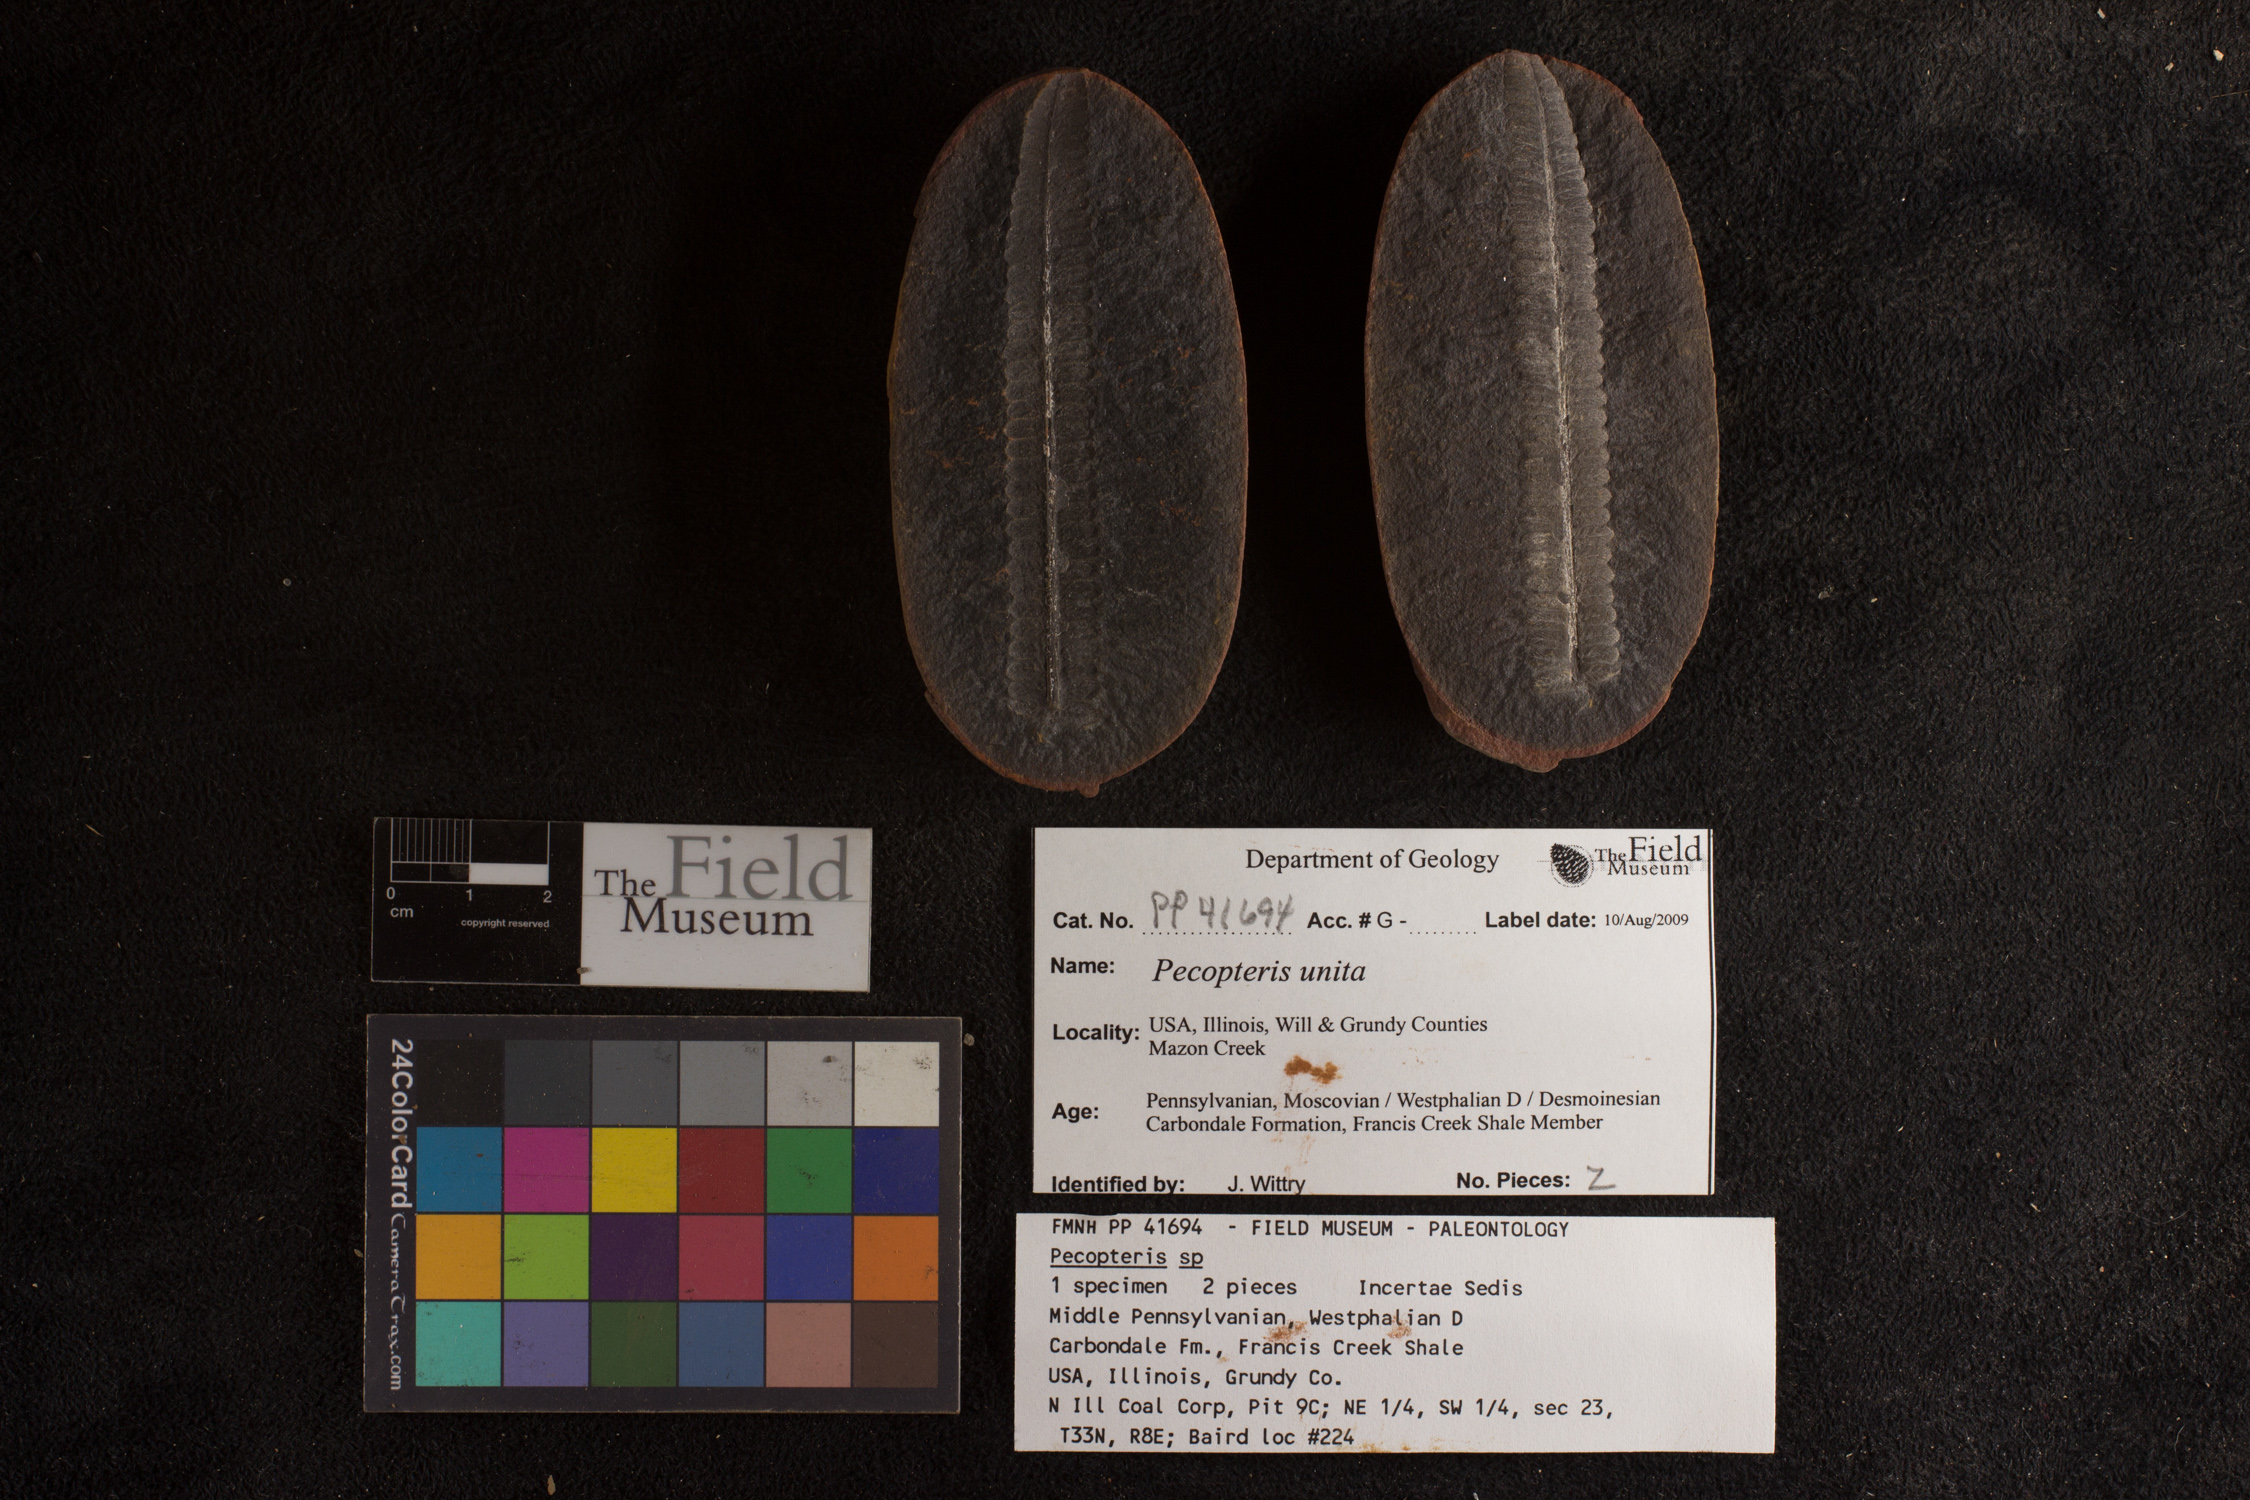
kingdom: Plantae
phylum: Tracheophyta
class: Polypodiopsida
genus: Diplazites
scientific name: Diplazites
